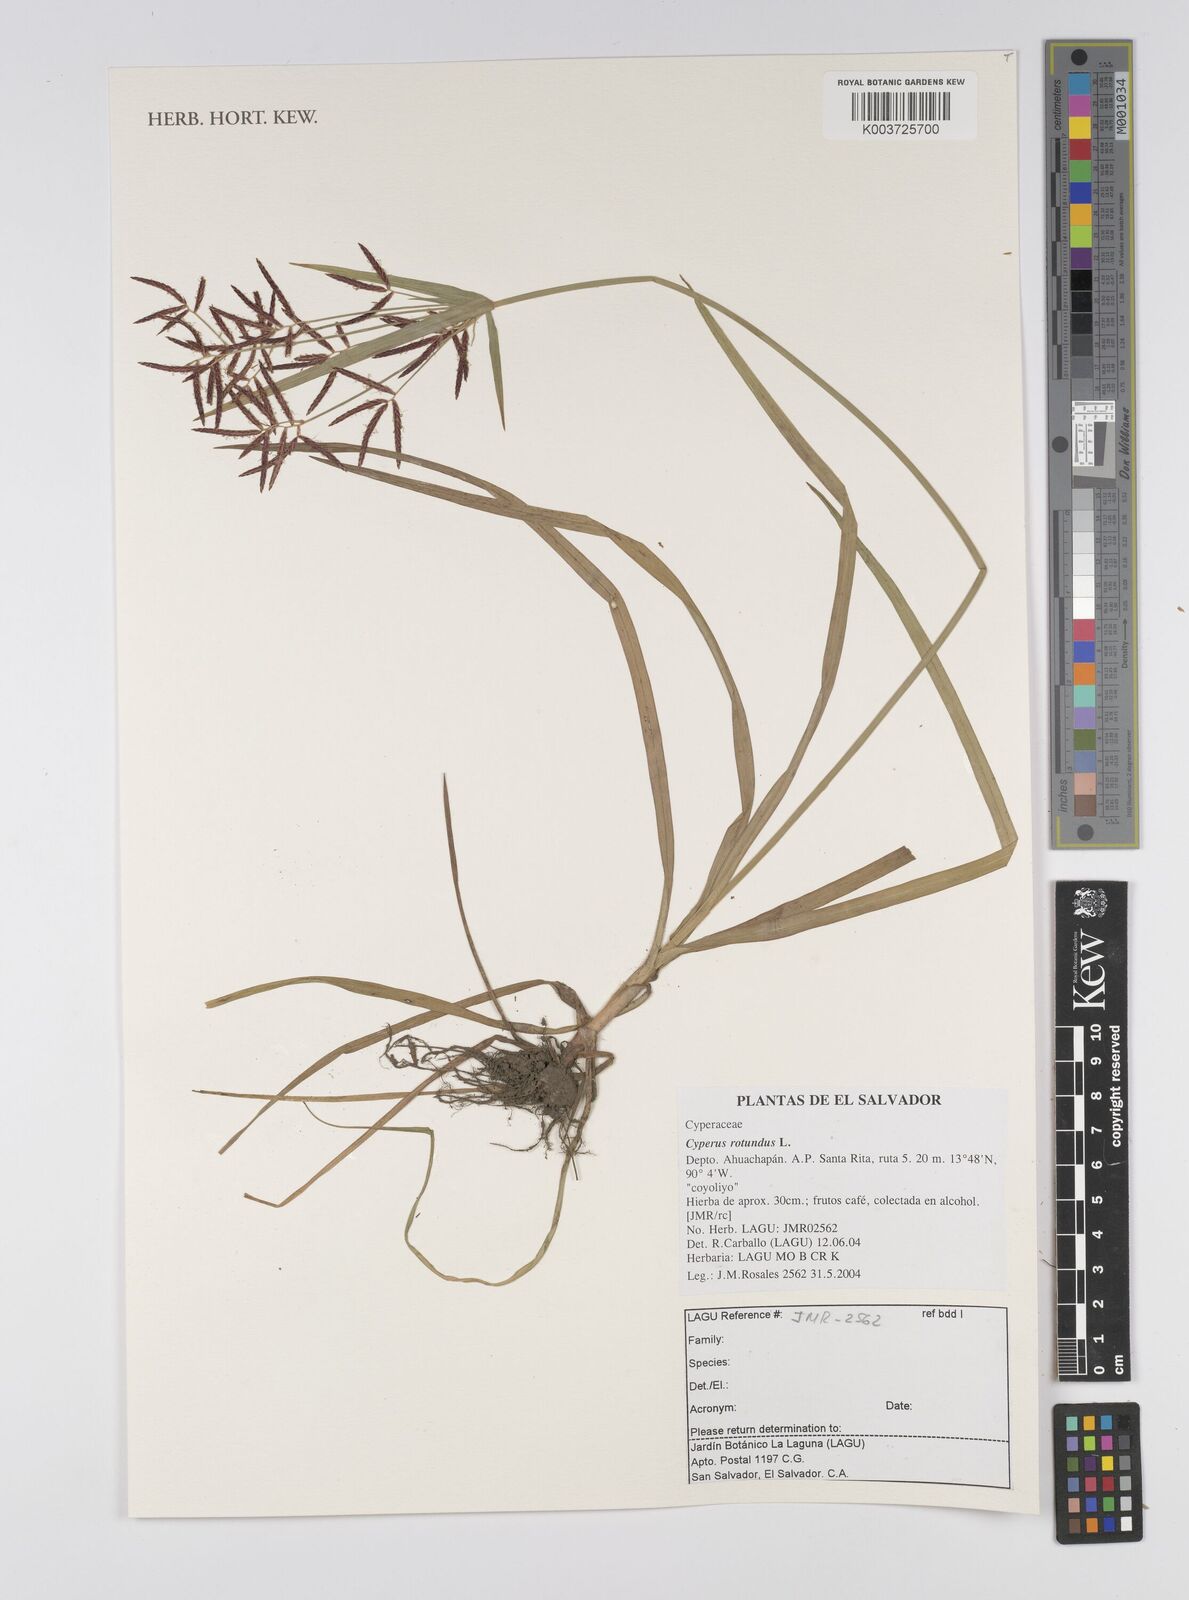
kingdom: Plantae
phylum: Tracheophyta
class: Liliopsida
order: Poales
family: Cyperaceae
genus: Cyperus
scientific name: Cyperus rotundus
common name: Nutgrass
